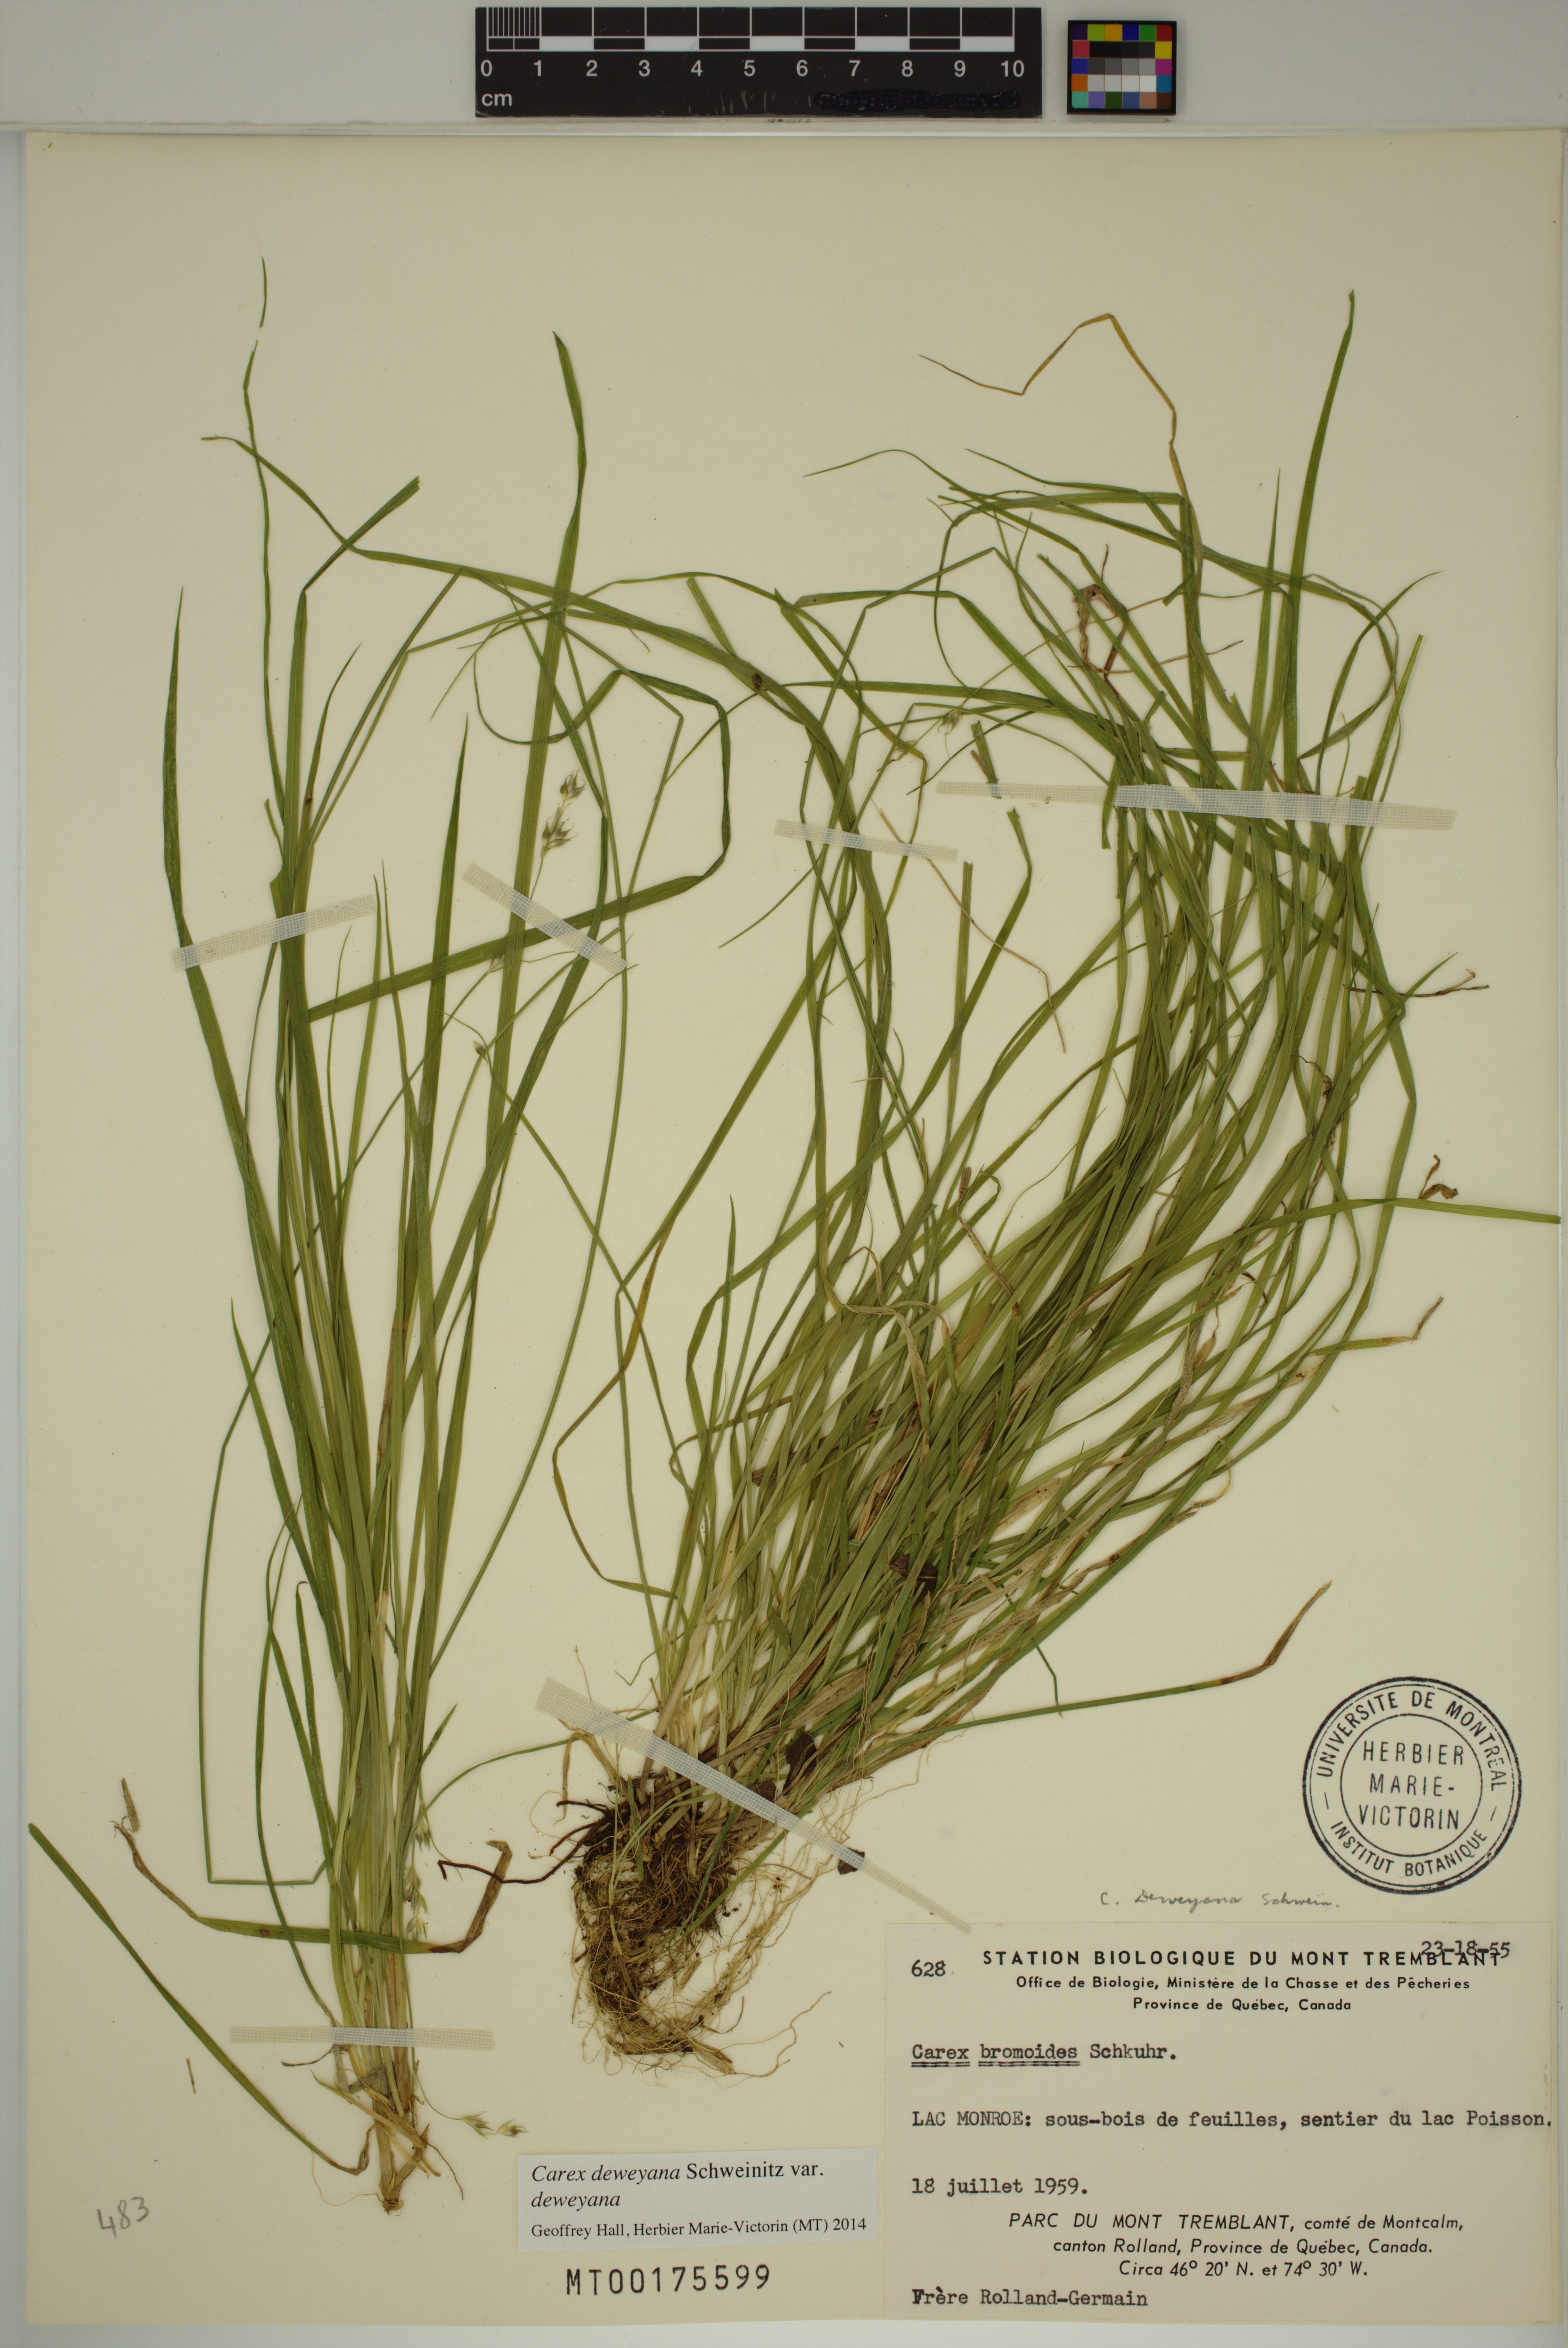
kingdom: Plantae
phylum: Tracheophyta
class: Liliopsida
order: Poales
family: Cyperaceae
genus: Carex
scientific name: Carex deweyana
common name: Dewey's sedge
